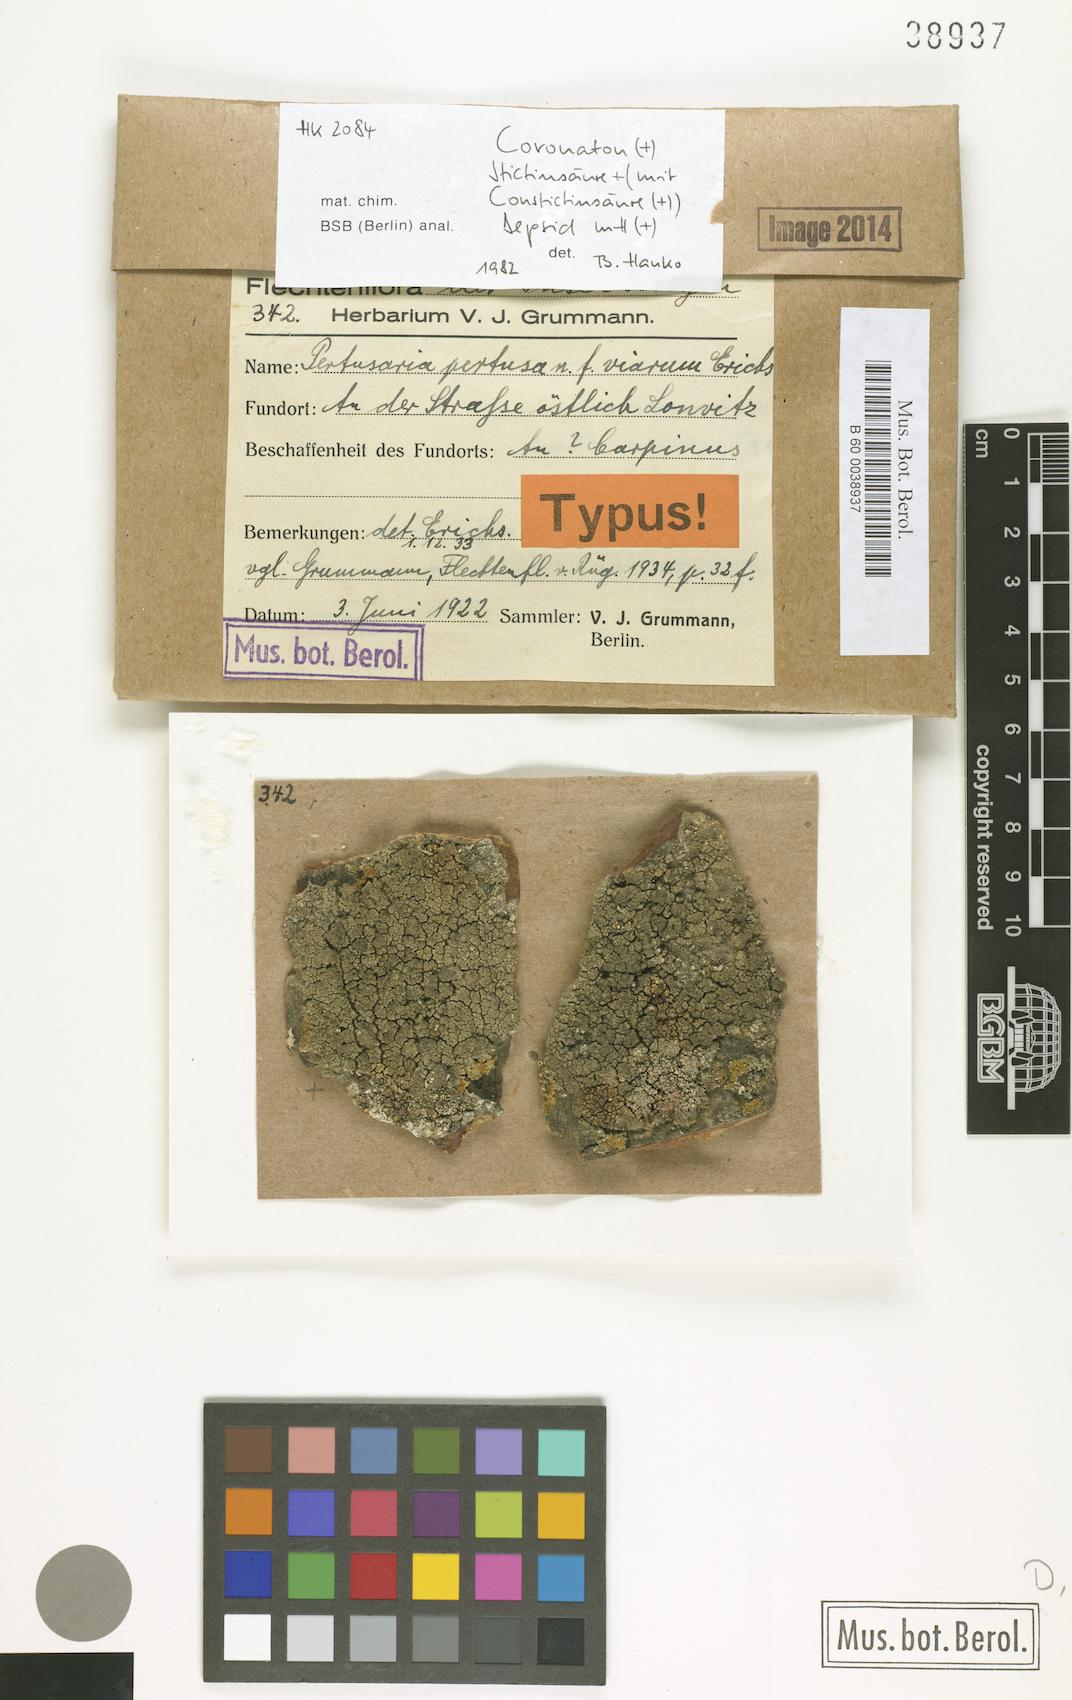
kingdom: Fungi
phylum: Ascomycota
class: Lecanoromycetes
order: Pertusariales
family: Pertusariaceae
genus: Pertusaria
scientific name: Pertusaria pertusa
